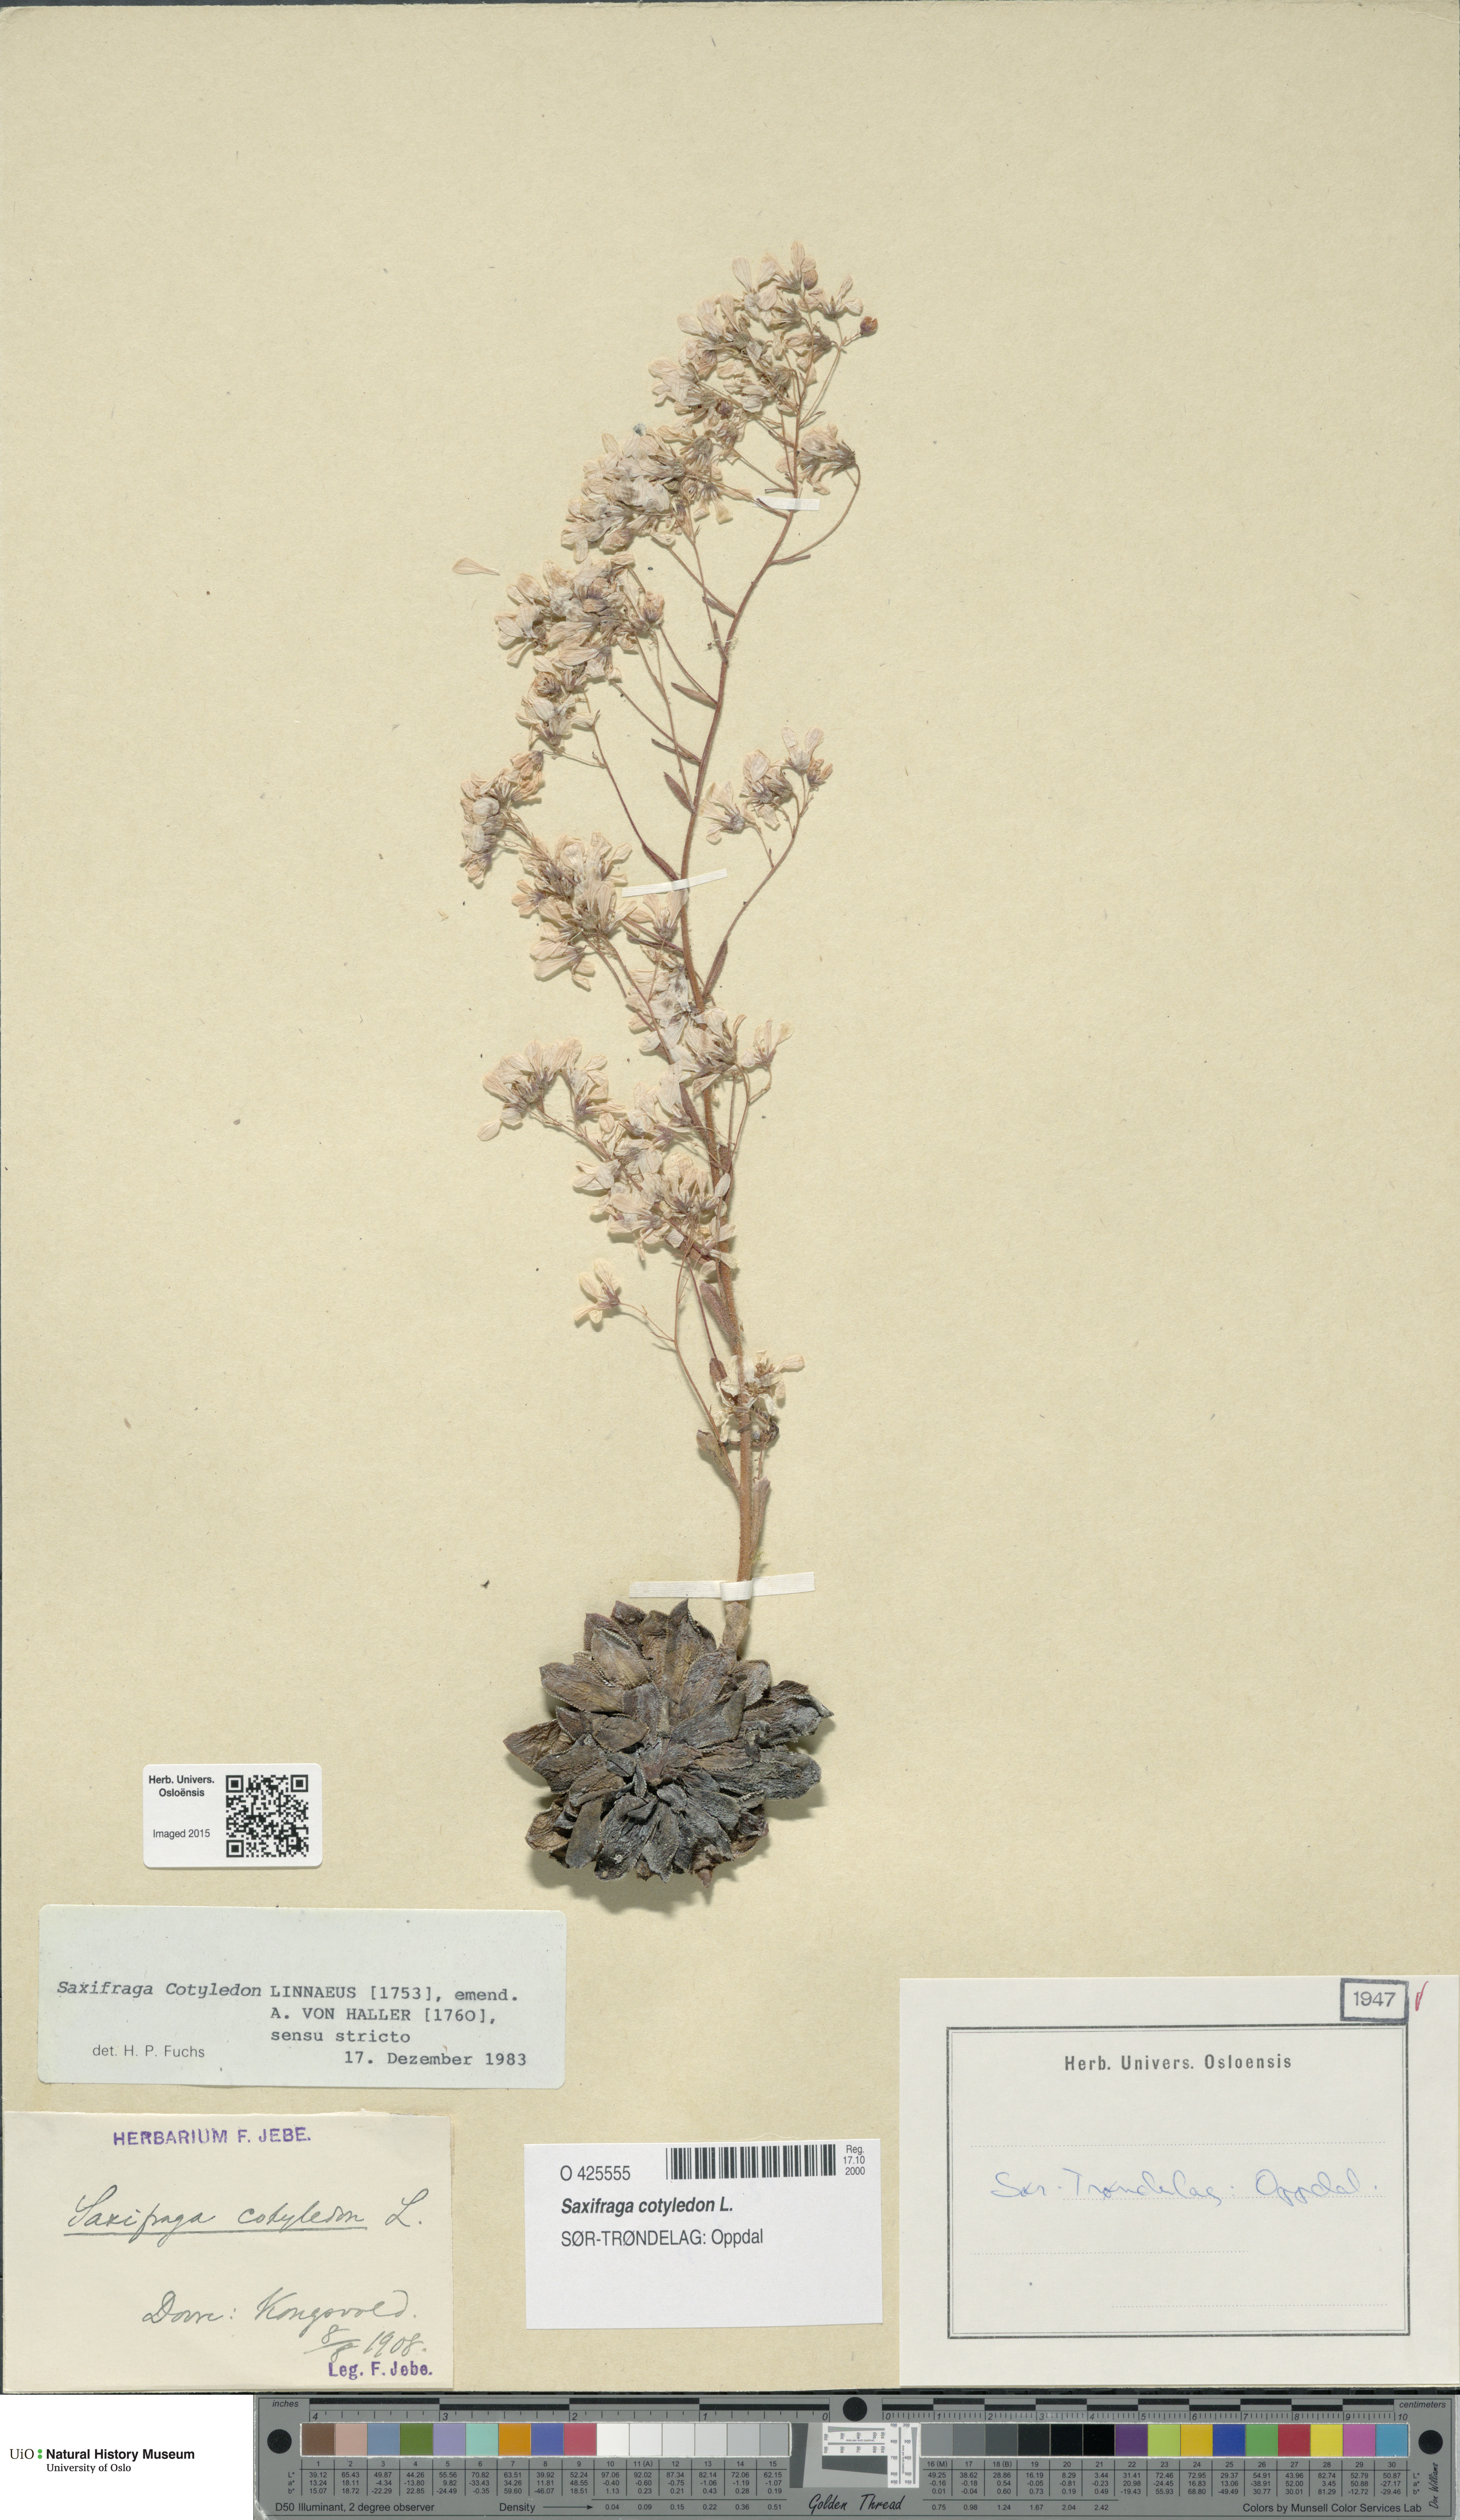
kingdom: Plantae
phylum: Tracheophyta
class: Magnoliopsida
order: Saxifragales
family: Saxifragaceae
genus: Saxifraga
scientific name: Saxifraga cotyledon
